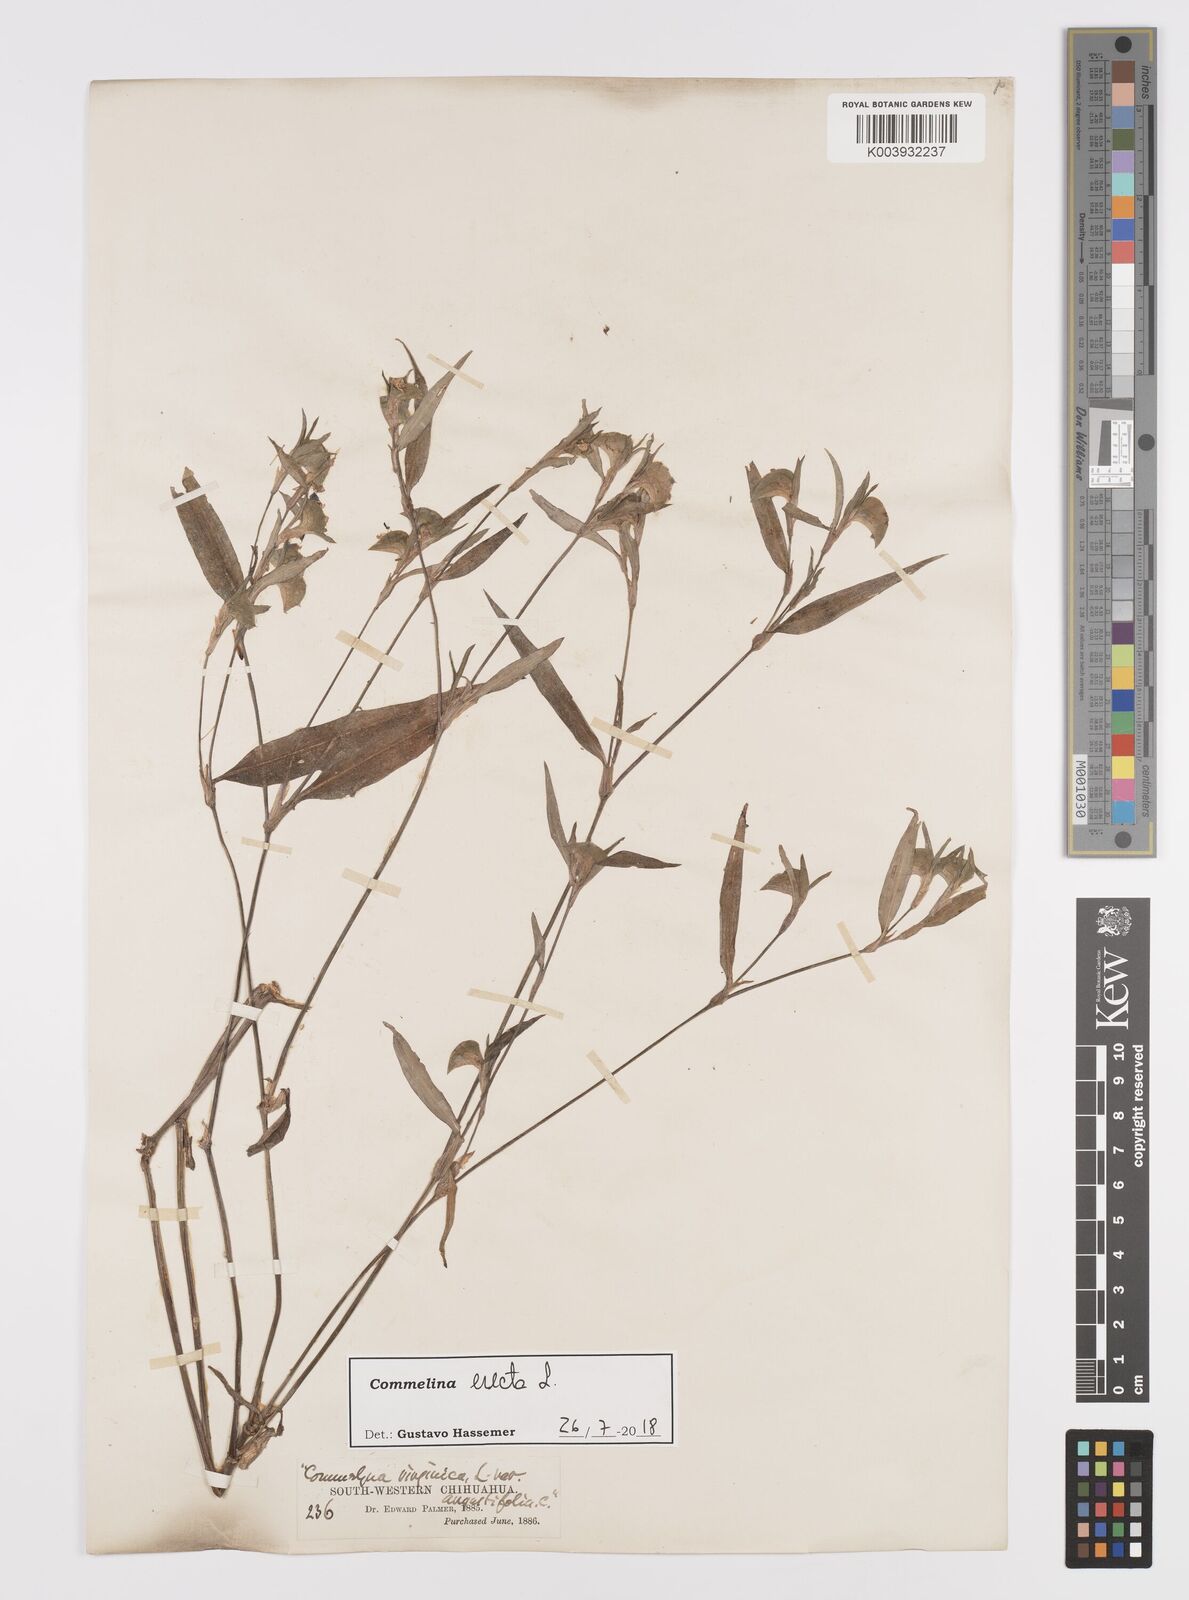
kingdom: Plantae
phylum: Tracheophyta
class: Liliopsida
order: Commelinales
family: Commelinaceae
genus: Commelina
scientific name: Commelina erecta
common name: Blousel blommetjie
